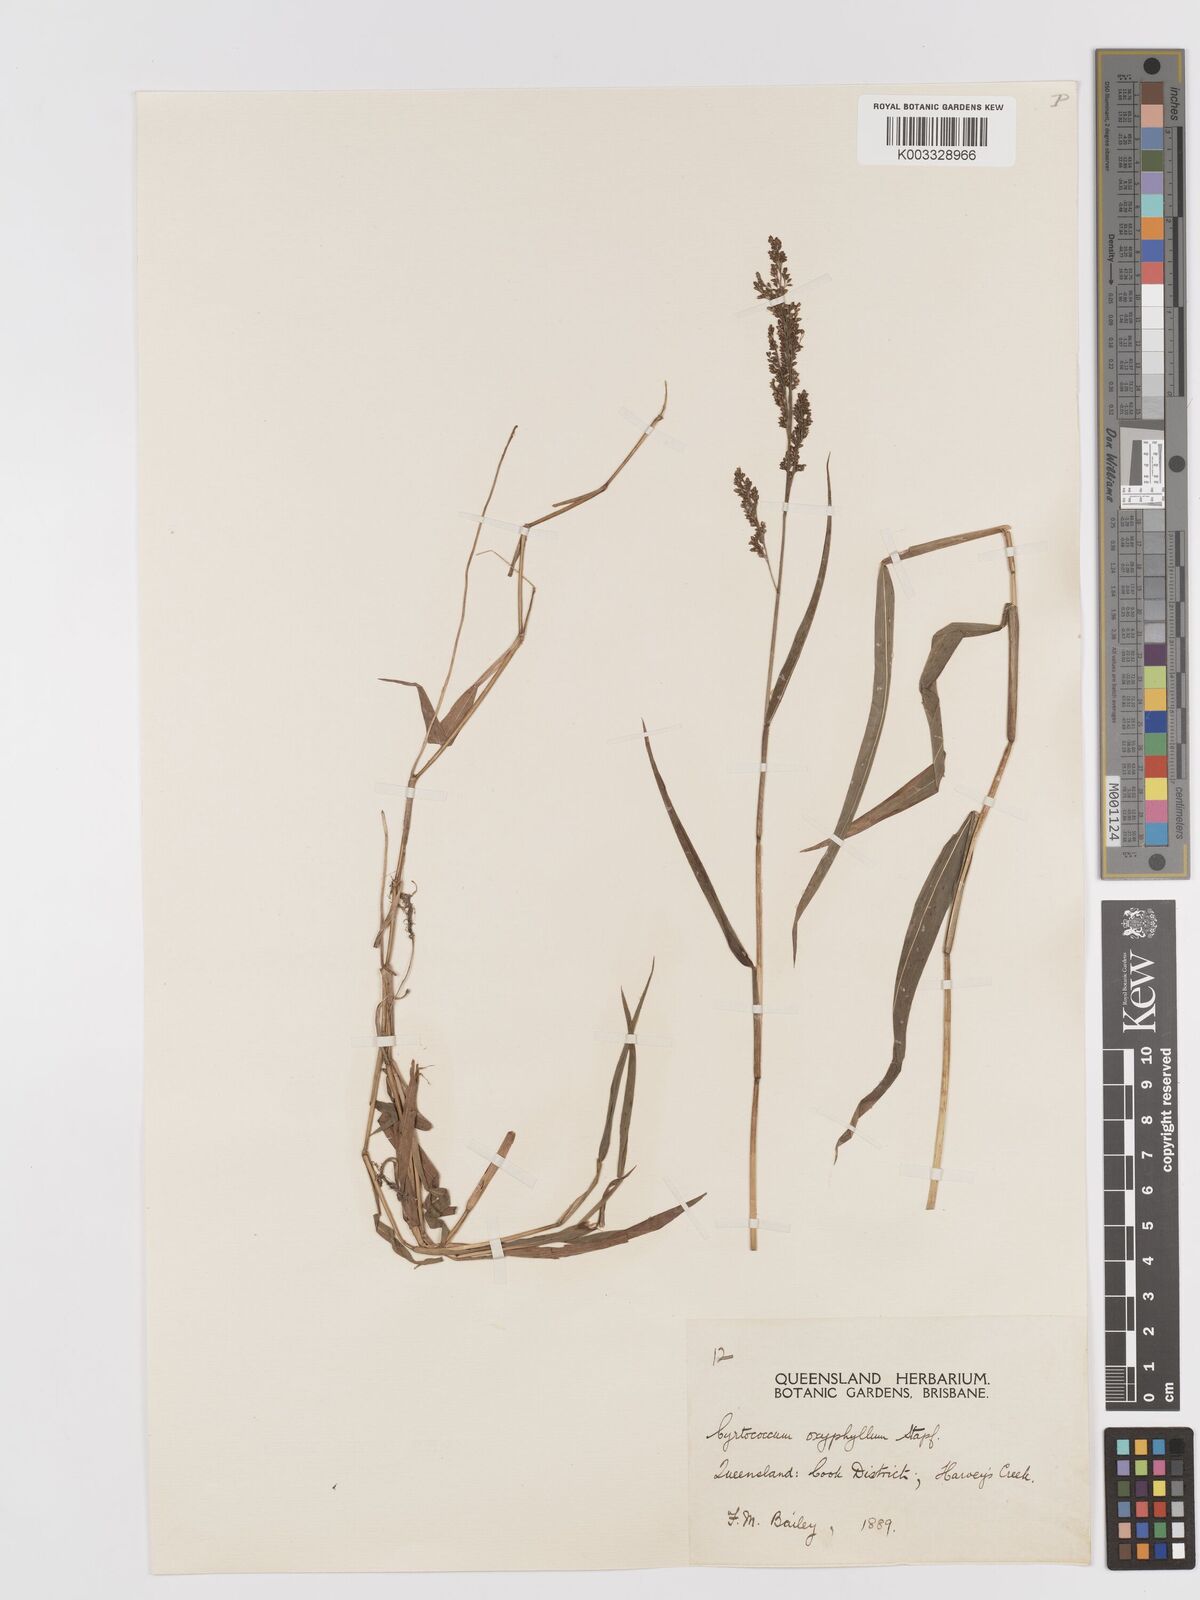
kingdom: Plantae
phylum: Tracheophyta
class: Liliopsida
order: Poales
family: Poaceae
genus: Cyrtococcum
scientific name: Cyrtococcum oxyphyllum
